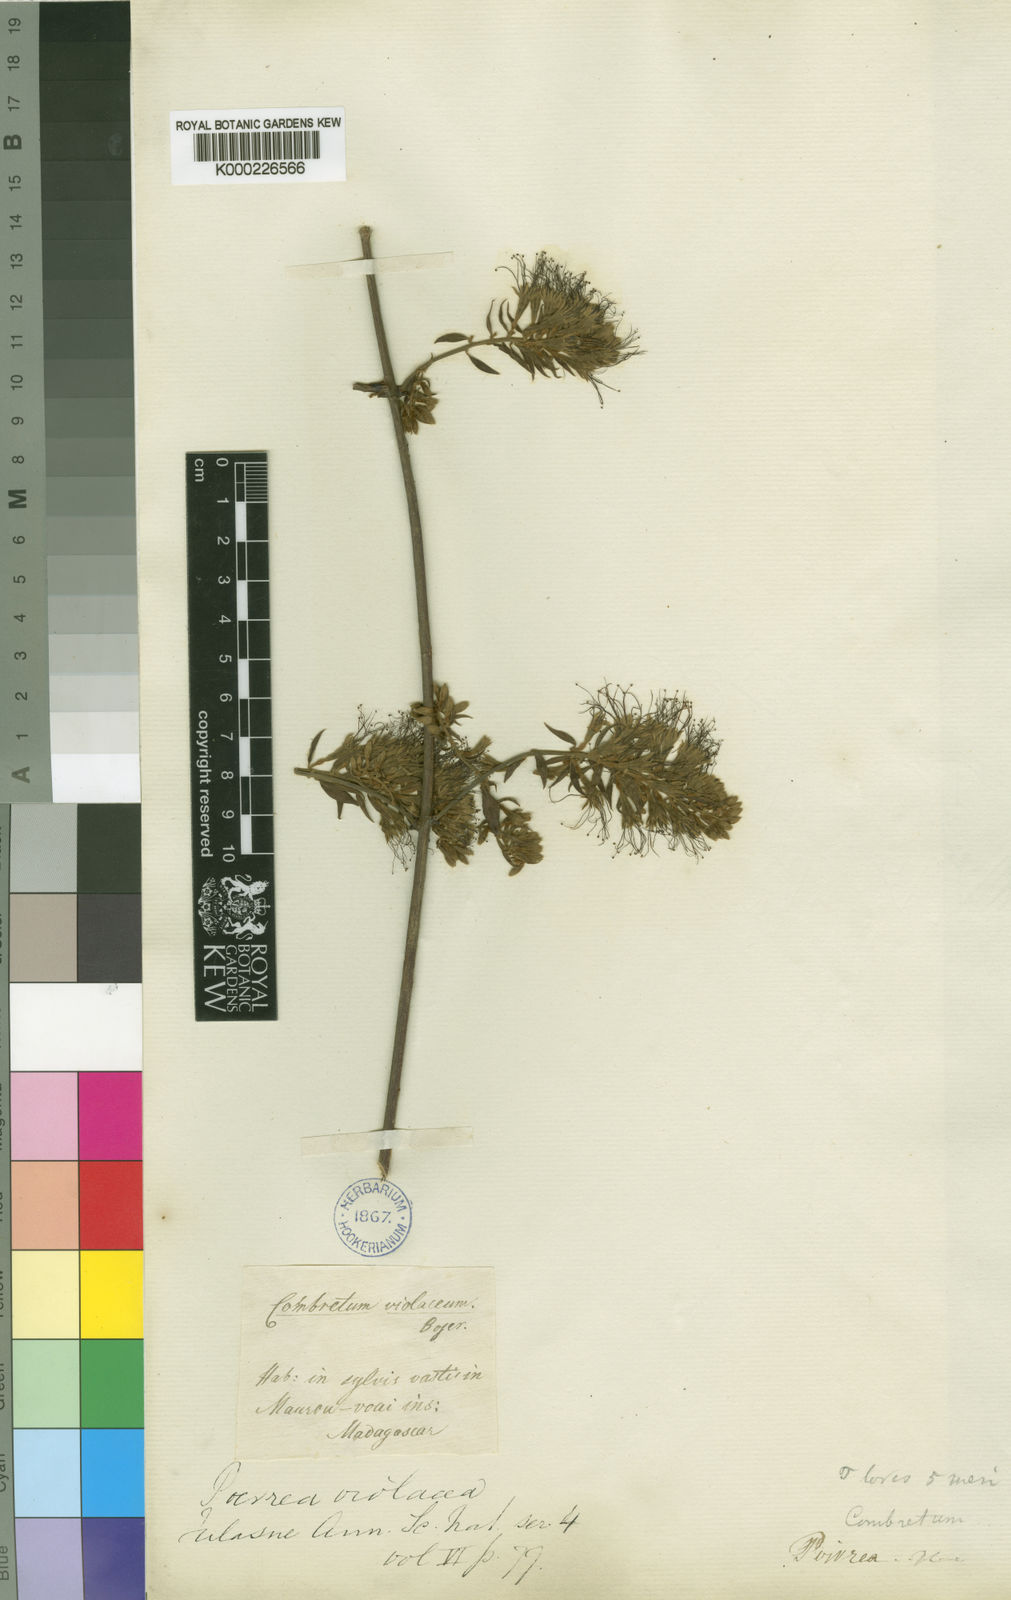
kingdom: Plantae
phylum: Tracheophyta
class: Magnoliopsida
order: Myrtales
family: Combretaceae
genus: Combretum
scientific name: Combretum villosum
